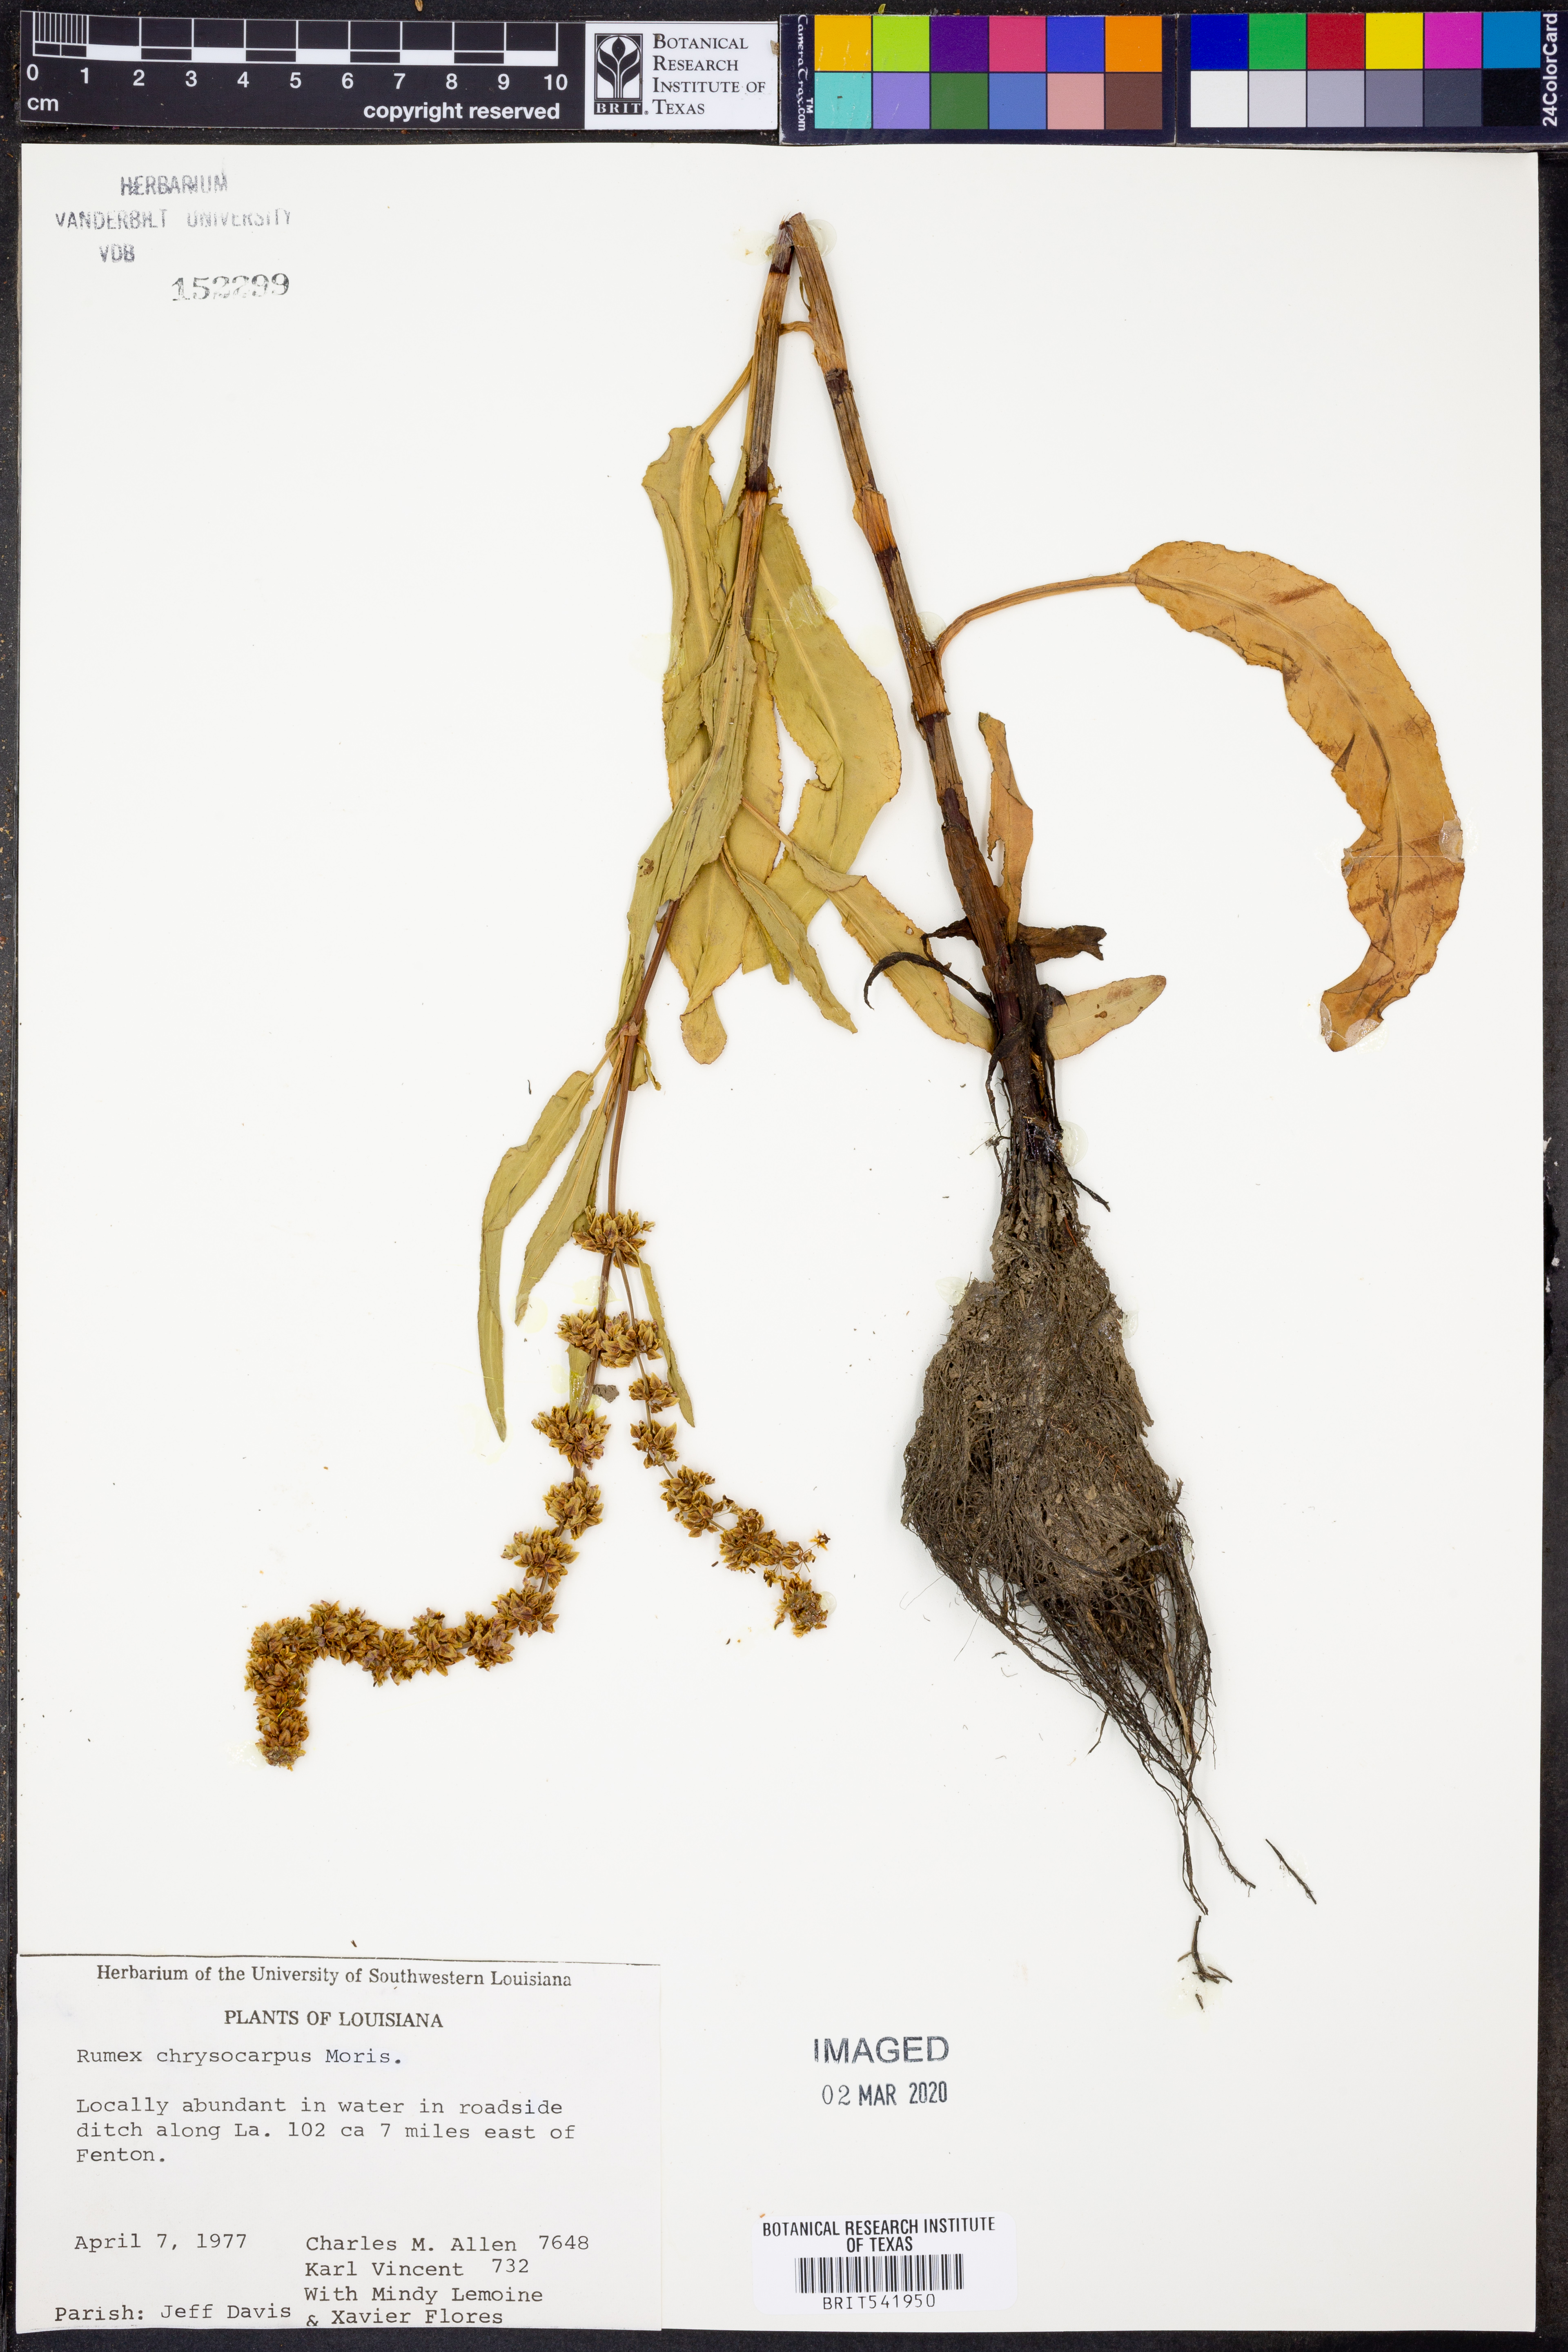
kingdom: Plantae
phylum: Tracheophyta
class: Magnoliopsida
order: Caryophyllales
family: Polygonaceae
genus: Rumex
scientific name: Rumex chrysocarpus
